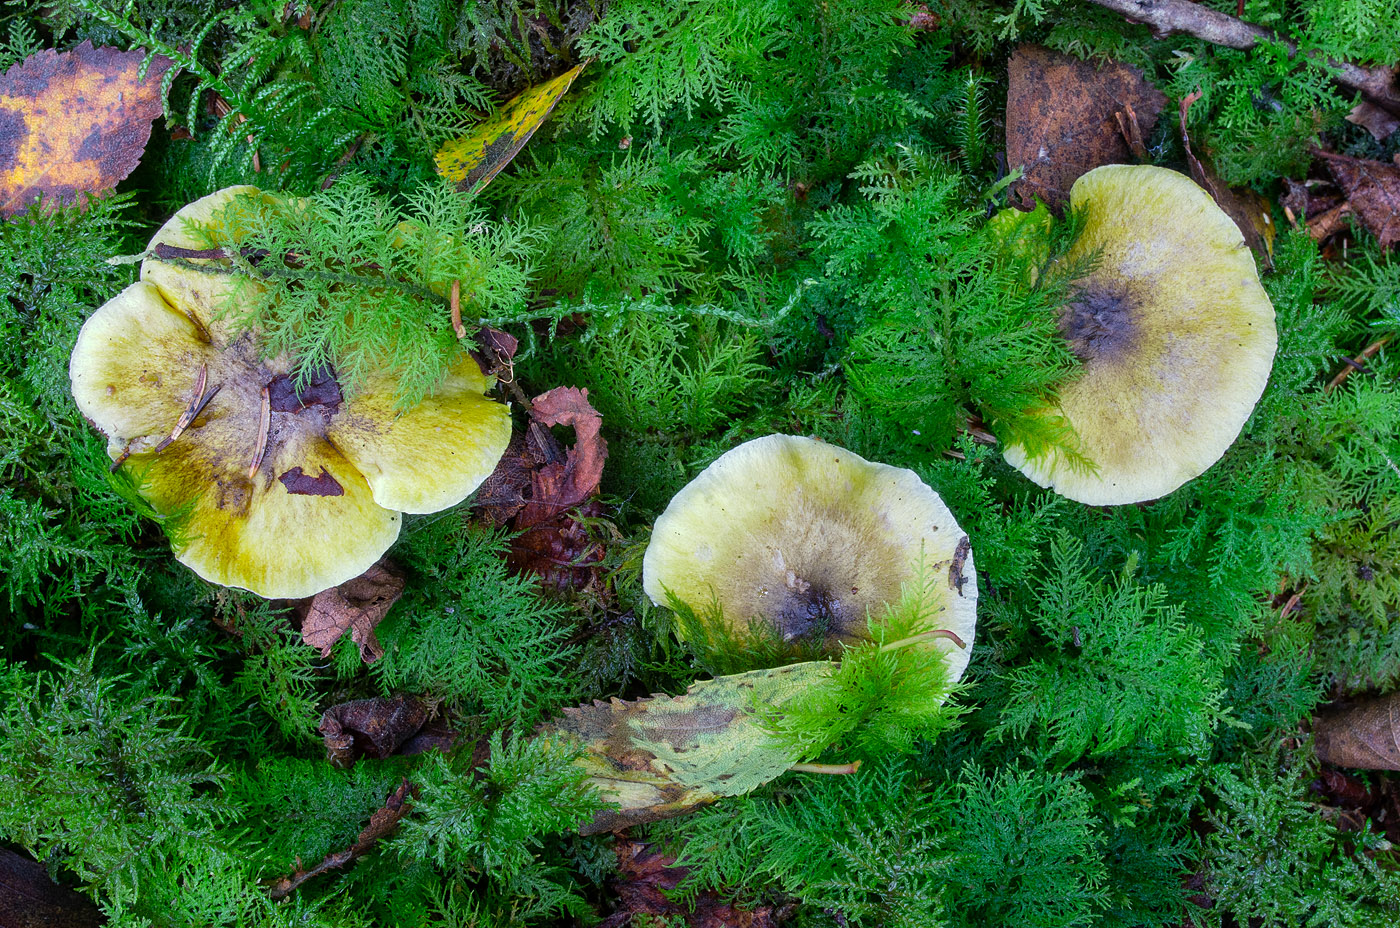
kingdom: Fungi
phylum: Basidiomycota
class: Agaricomycetes
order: Agaricales
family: Tricholomataceae
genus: Tricholoma
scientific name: Tricholoma viridilutescens
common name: sortøjet ridderhat
